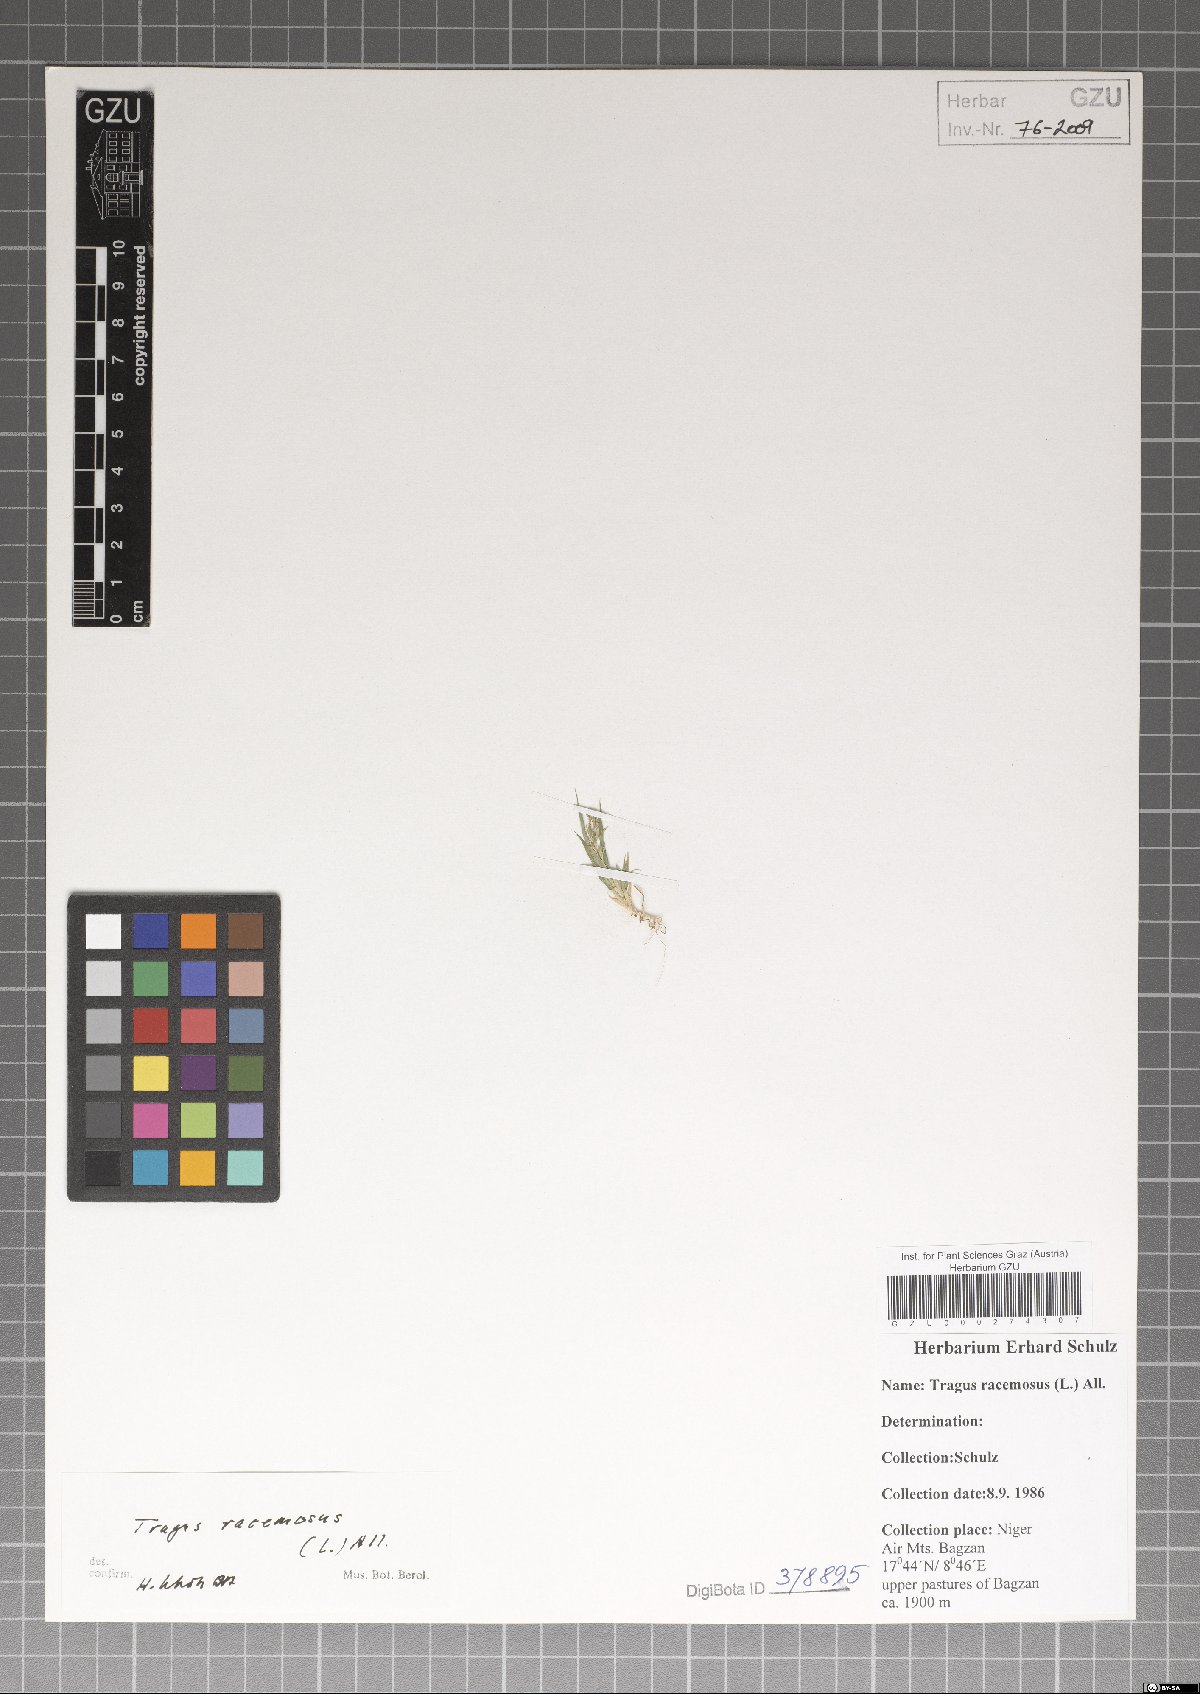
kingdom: Plantae
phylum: Tracheophyta
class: Liliopsida
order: Poales
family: Poaceae
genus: Tragus
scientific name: Tragus racemosus
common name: European bur-grass
